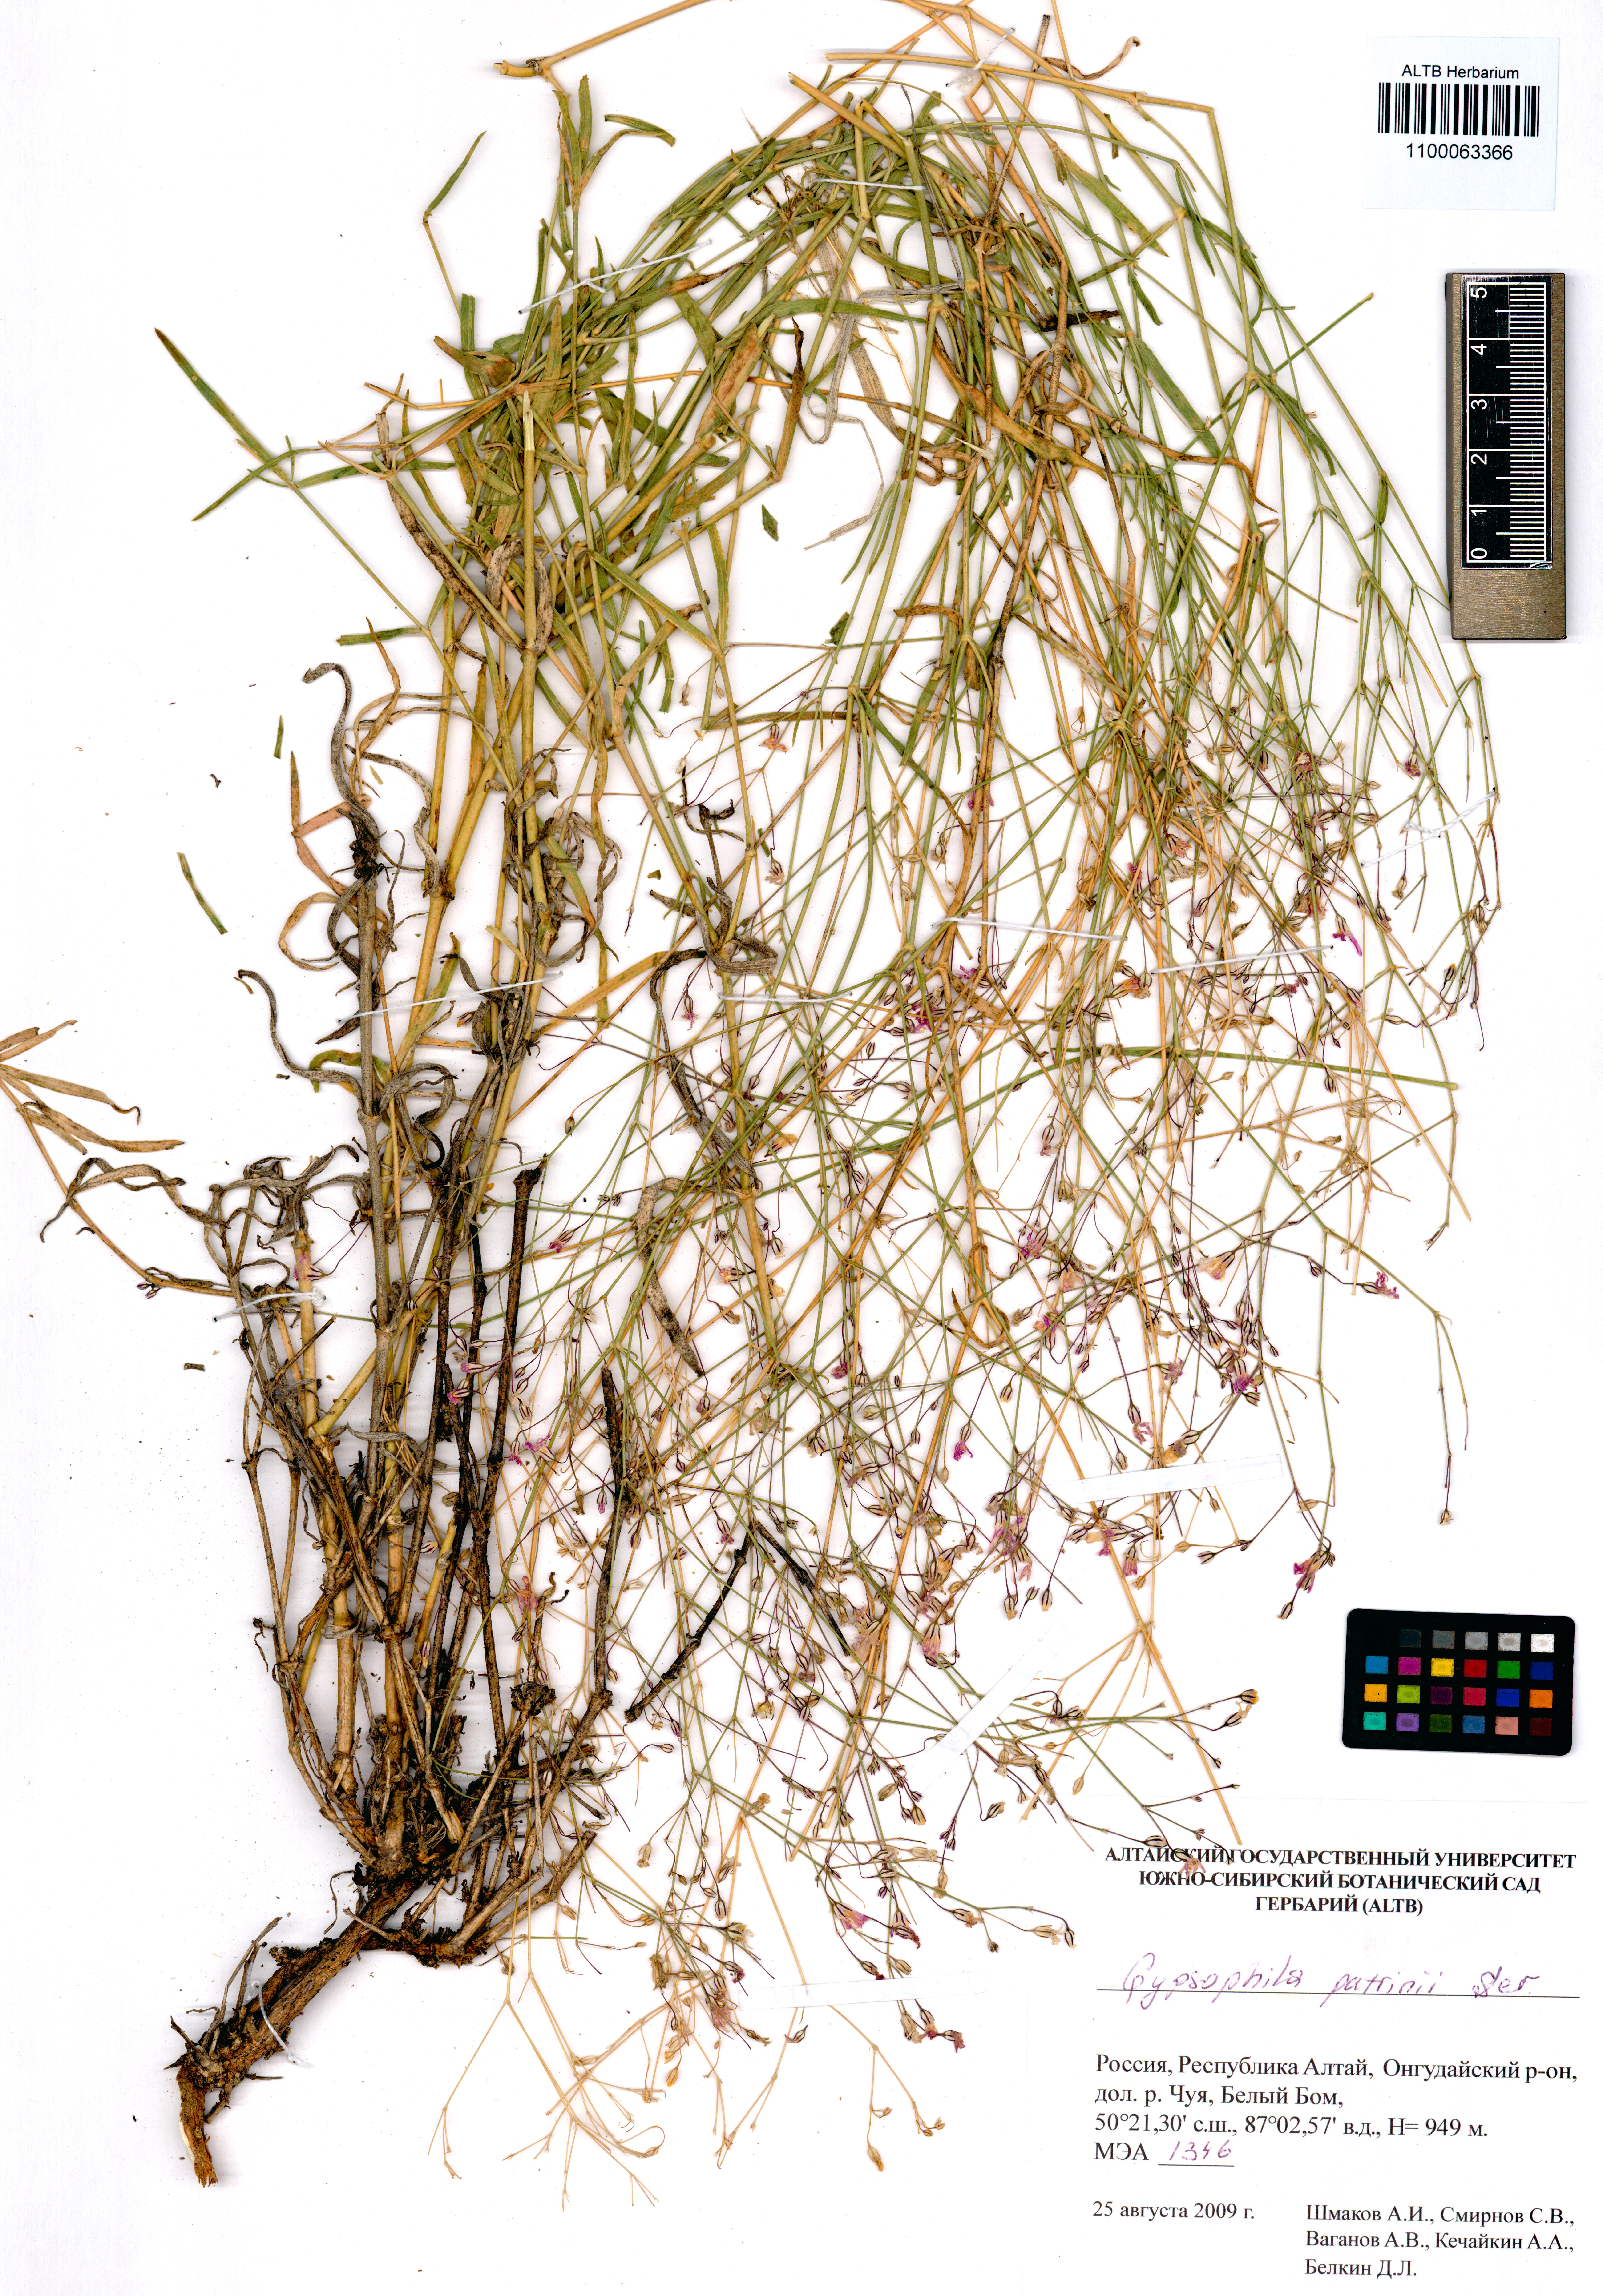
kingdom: Plantae
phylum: Tracheophyta
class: Magnoliopsida
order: Caryophyllales
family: Caryophyllaceae
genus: Gypsophila
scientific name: Gypsophila patrinii
